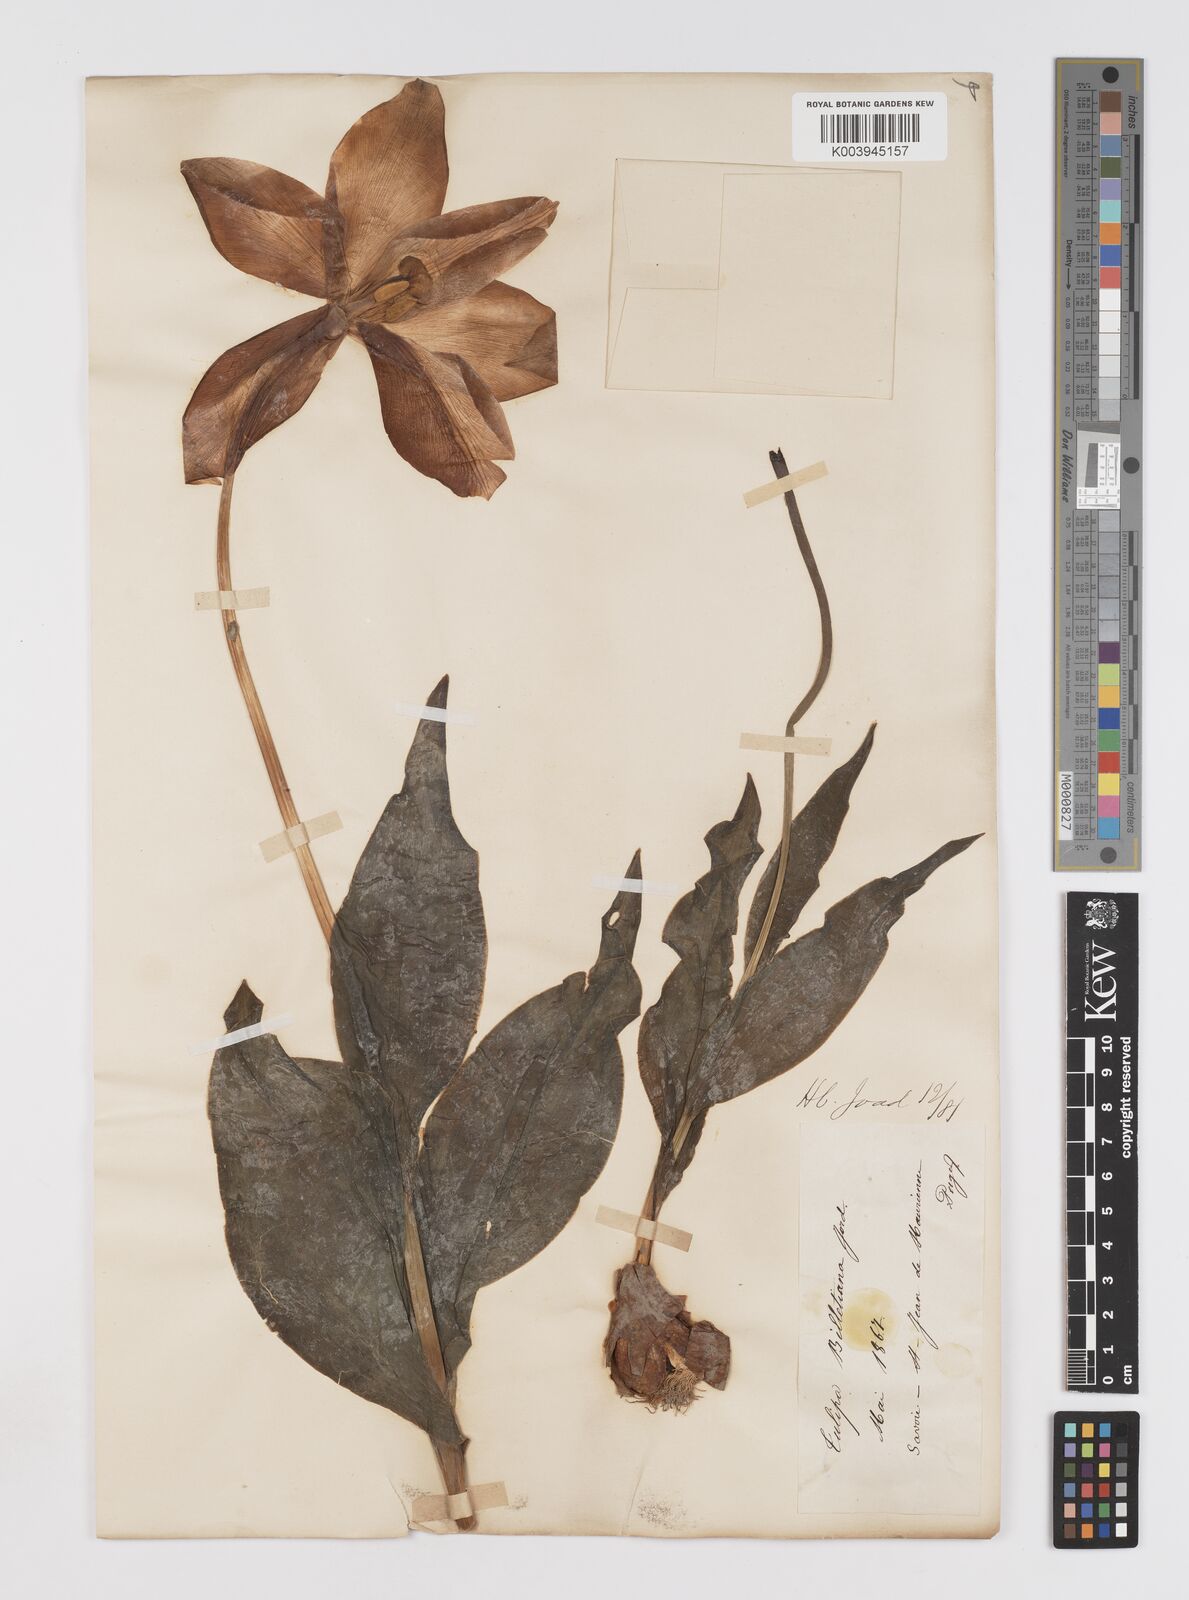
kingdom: Plantae
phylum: Tracheophyta
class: Liliopsida
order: Liliales
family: Liliaceae
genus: Tulipa
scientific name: Tulipa gesneriana
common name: Garden tulip
